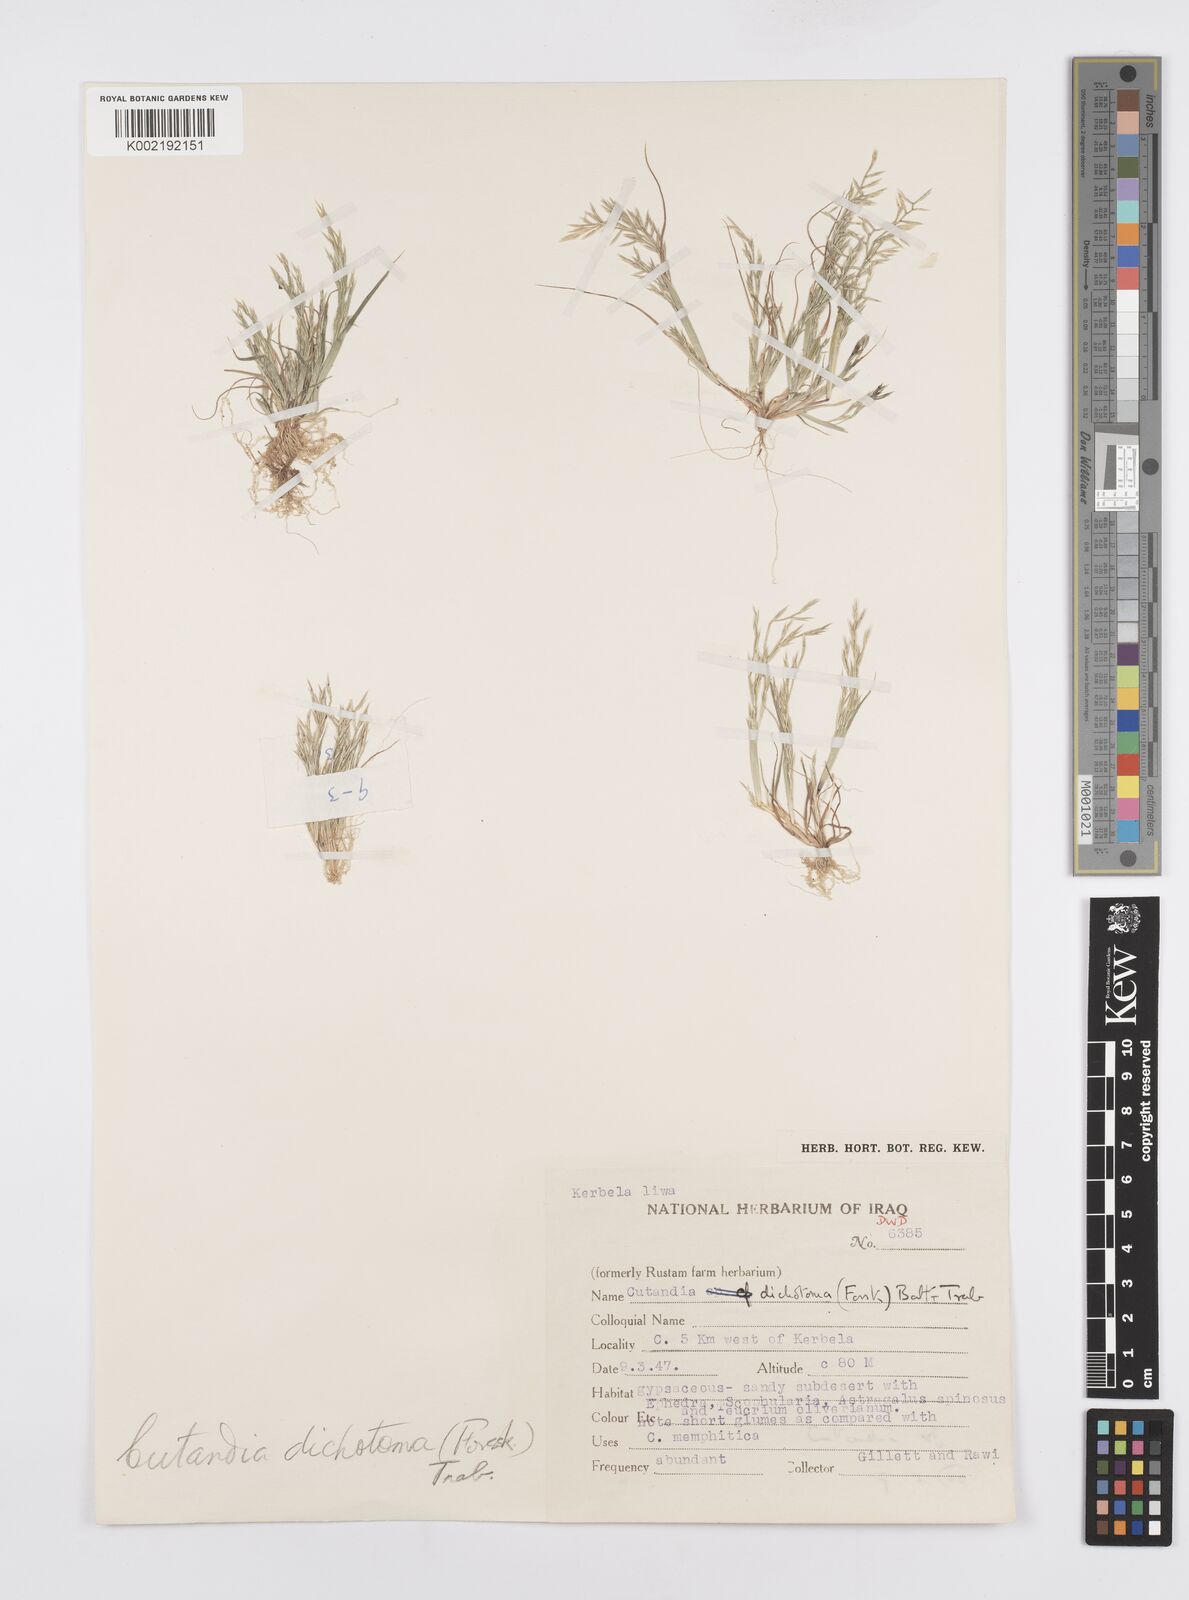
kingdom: Plantae
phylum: Tracheophyta
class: Liliopsida
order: Poales
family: Poaceae
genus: Cutandia
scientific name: Cutandia dichotoma
